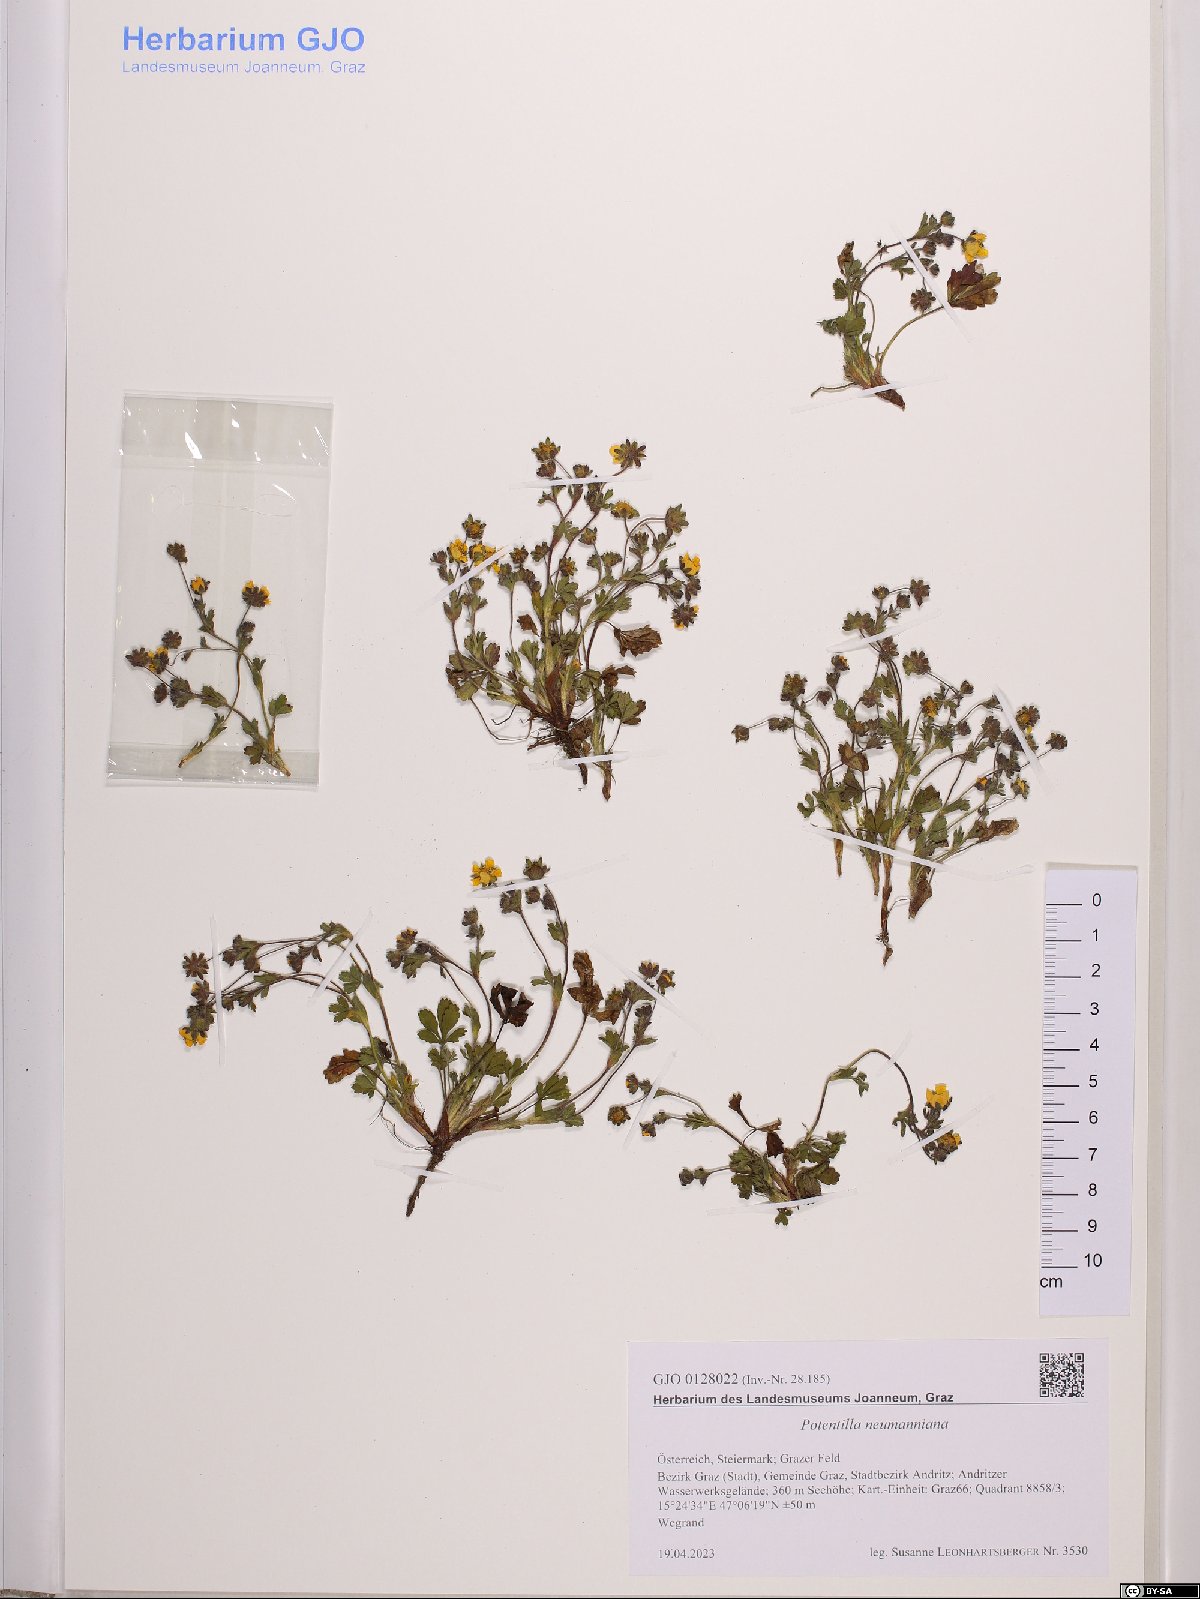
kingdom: Plantae
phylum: Tracheophyta
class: Magnoliopsida
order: Rosales
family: Rosaceae
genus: Potentilla
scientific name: Potentilla verna
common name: Spring cinquefoil
